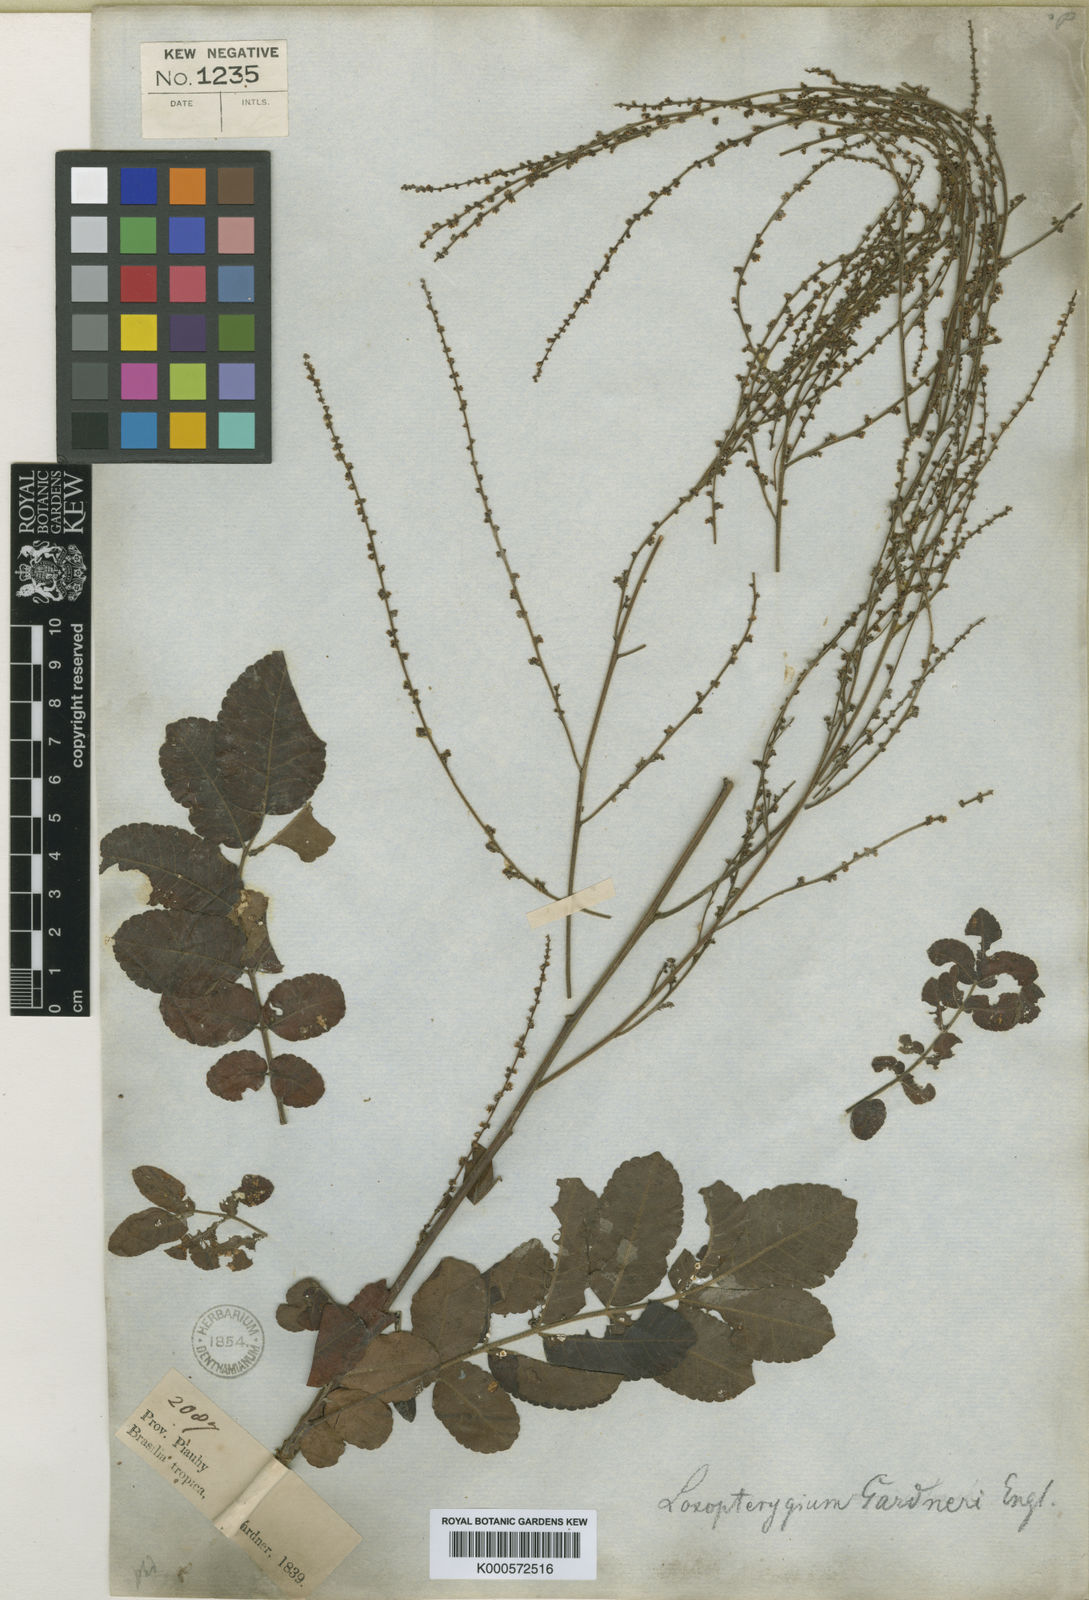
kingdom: Plantae
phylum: Tracheophyta
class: Magnoliopsida
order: Sapindales
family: Anacardiaceae
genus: Apterokarpos
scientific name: Apterokarpos gardneri
